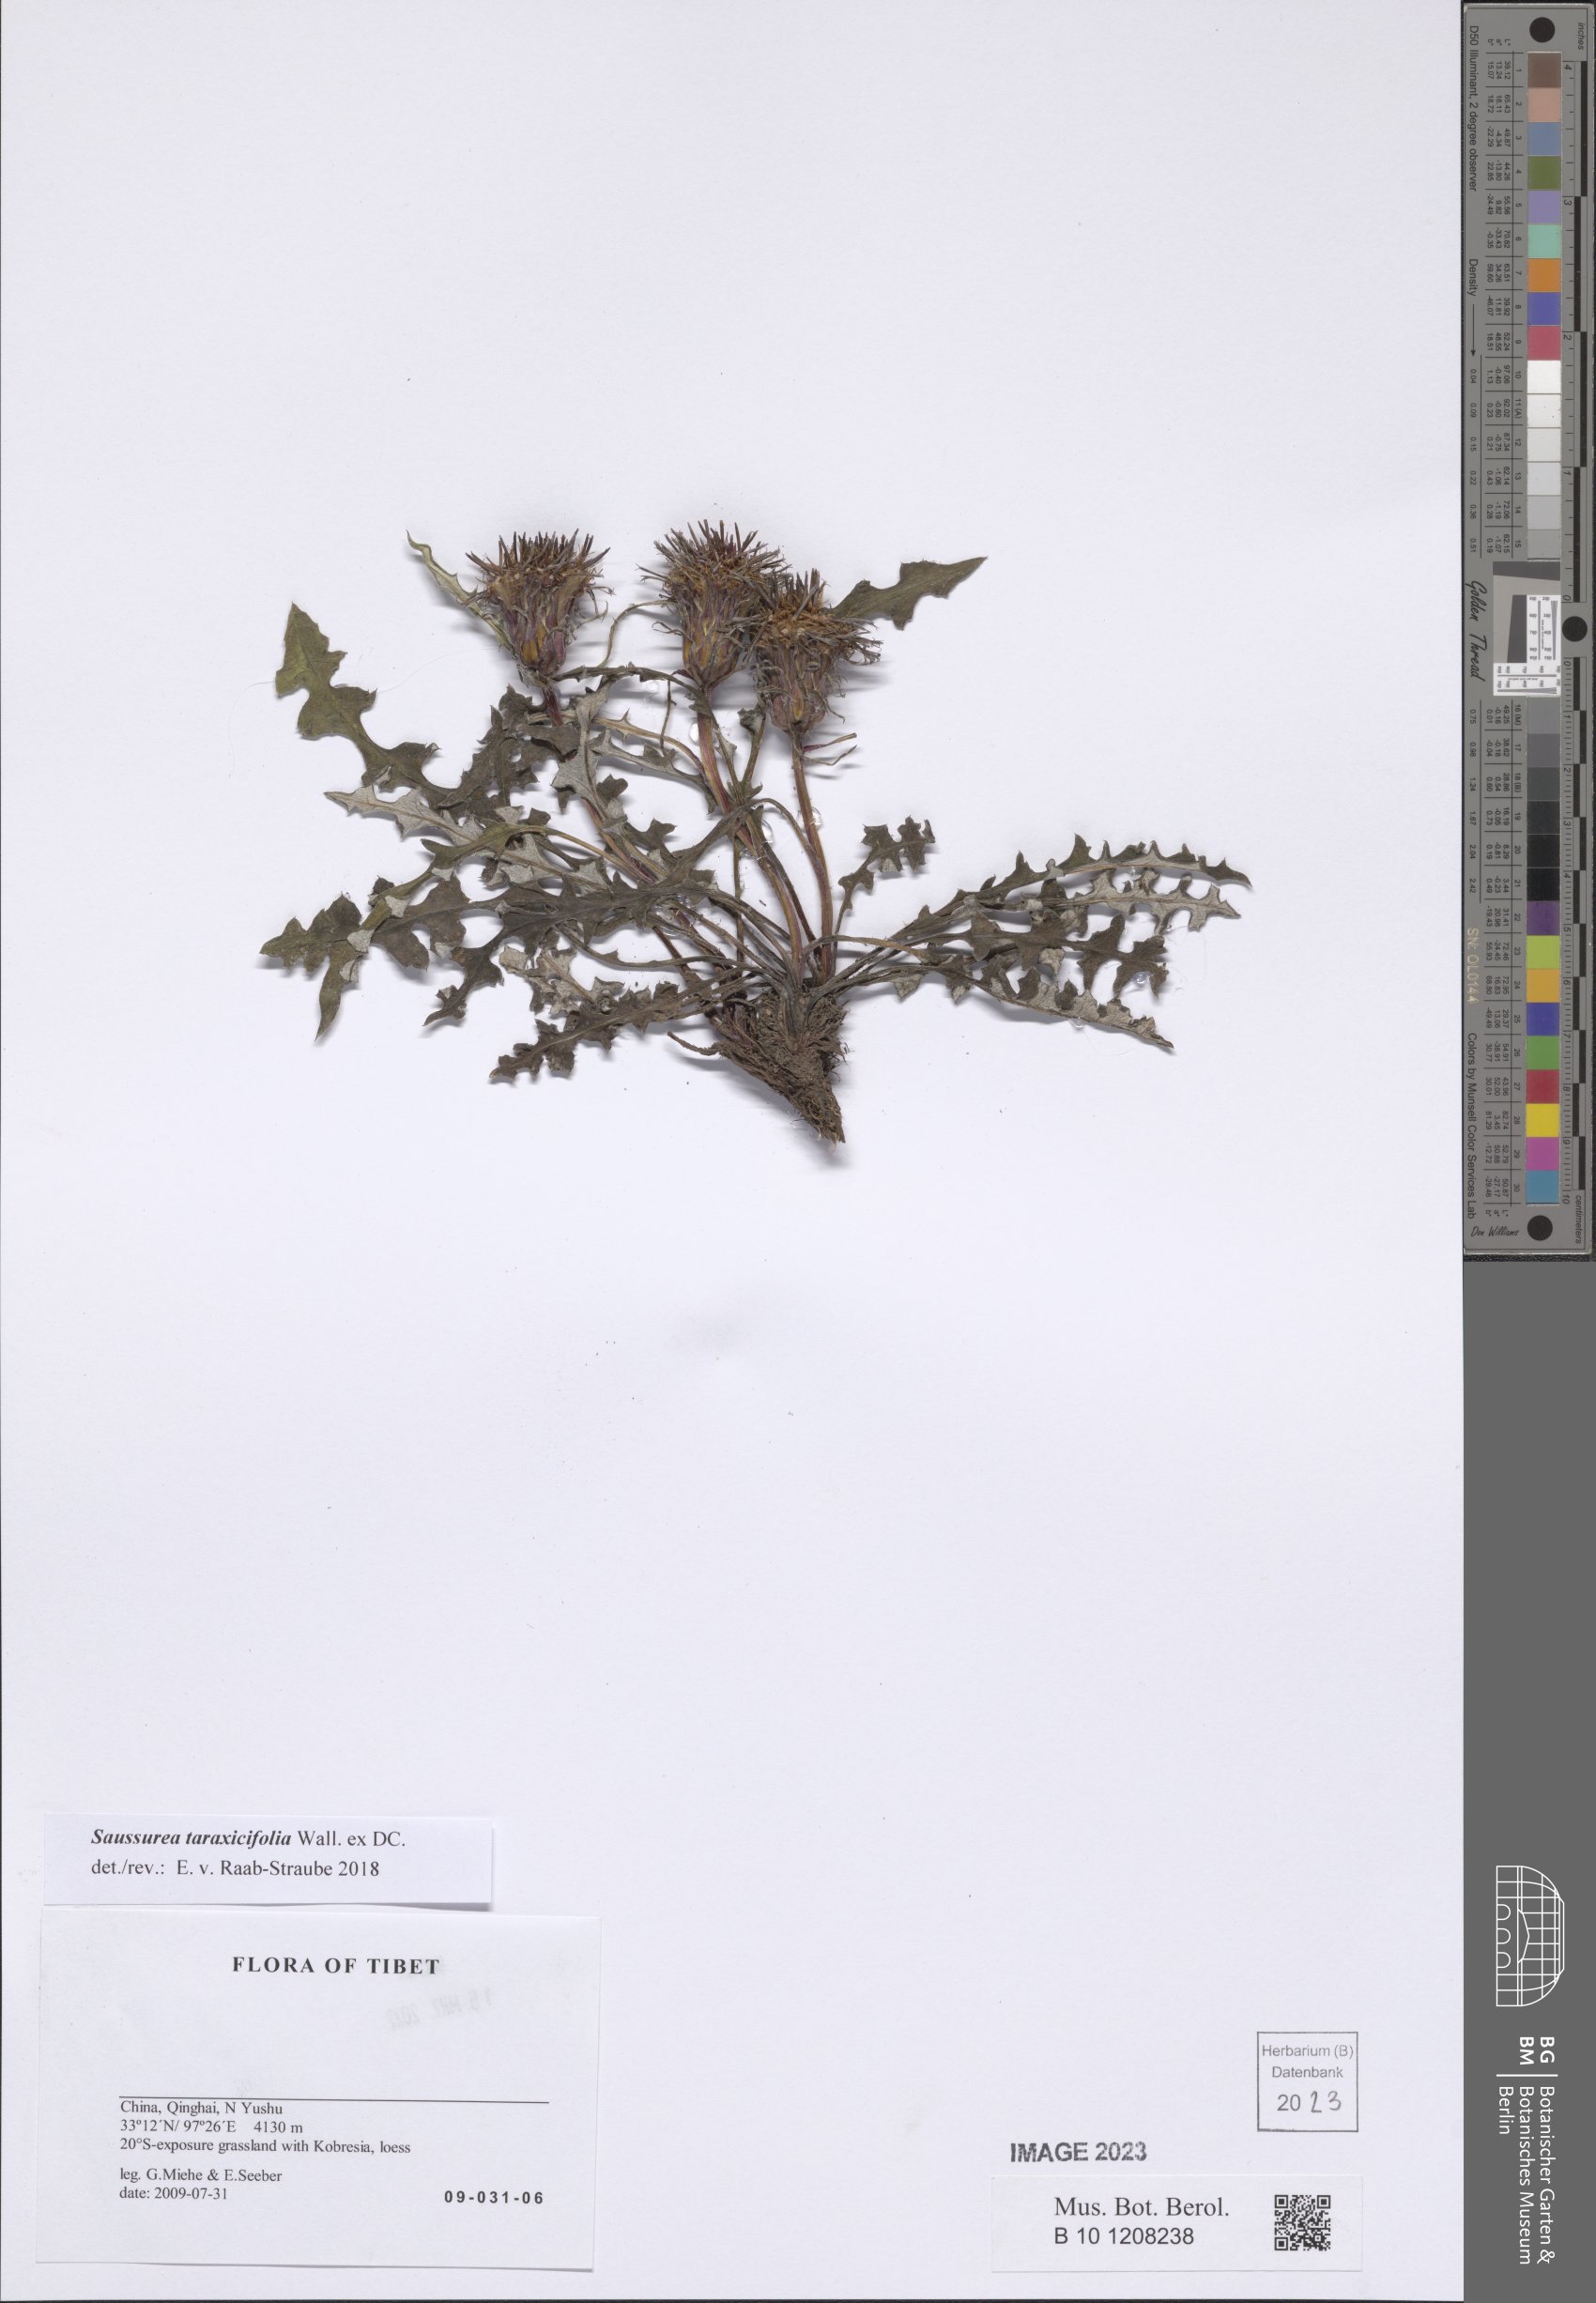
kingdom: Plantae
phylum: Tracheophyta
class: Magnoliopsida
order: Asterales
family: Asteraceae
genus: Saussurea
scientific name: Saussurea taraxacifolia
